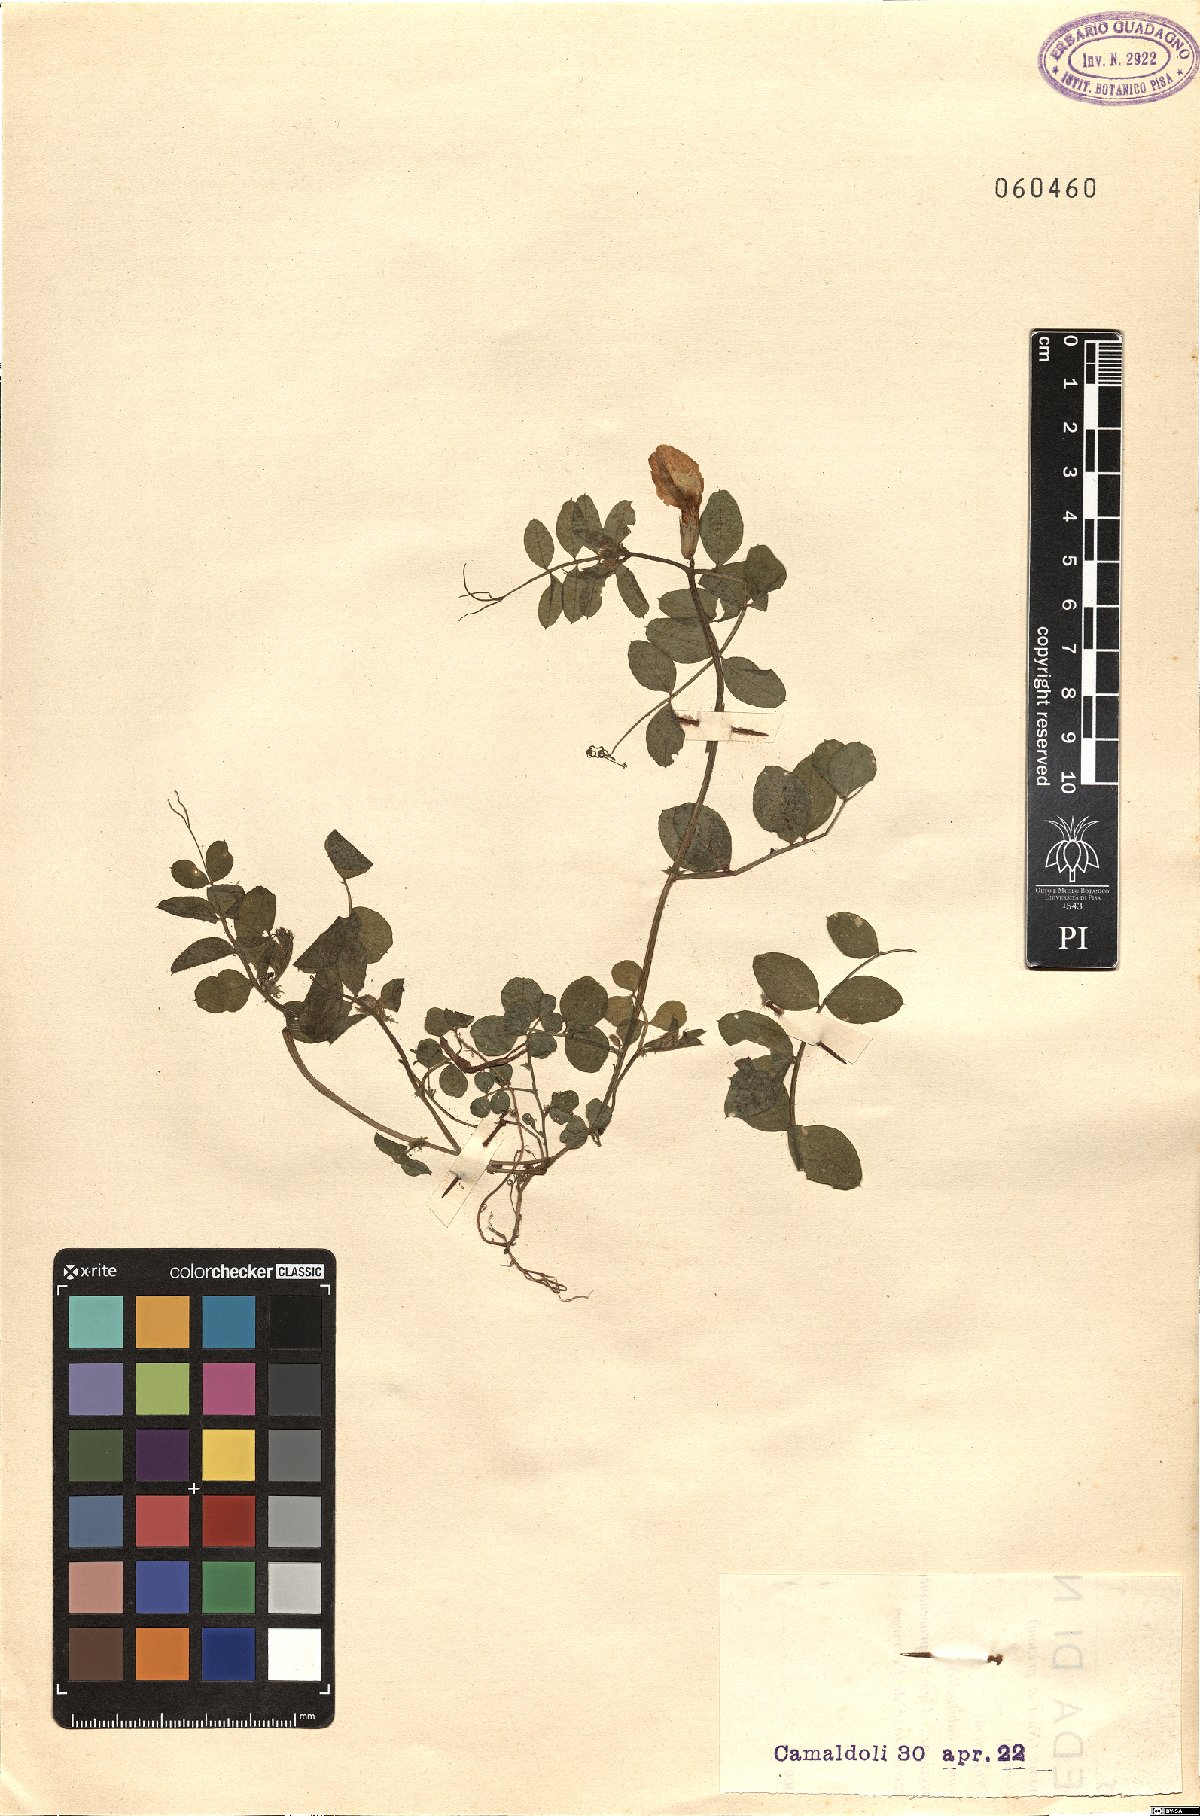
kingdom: Plantae
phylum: Tracheophyta
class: Magnoliopsida
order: Fabales
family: Fabaceae
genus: Vicia
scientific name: Vicia grandiflora
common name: Large yellow vetch
